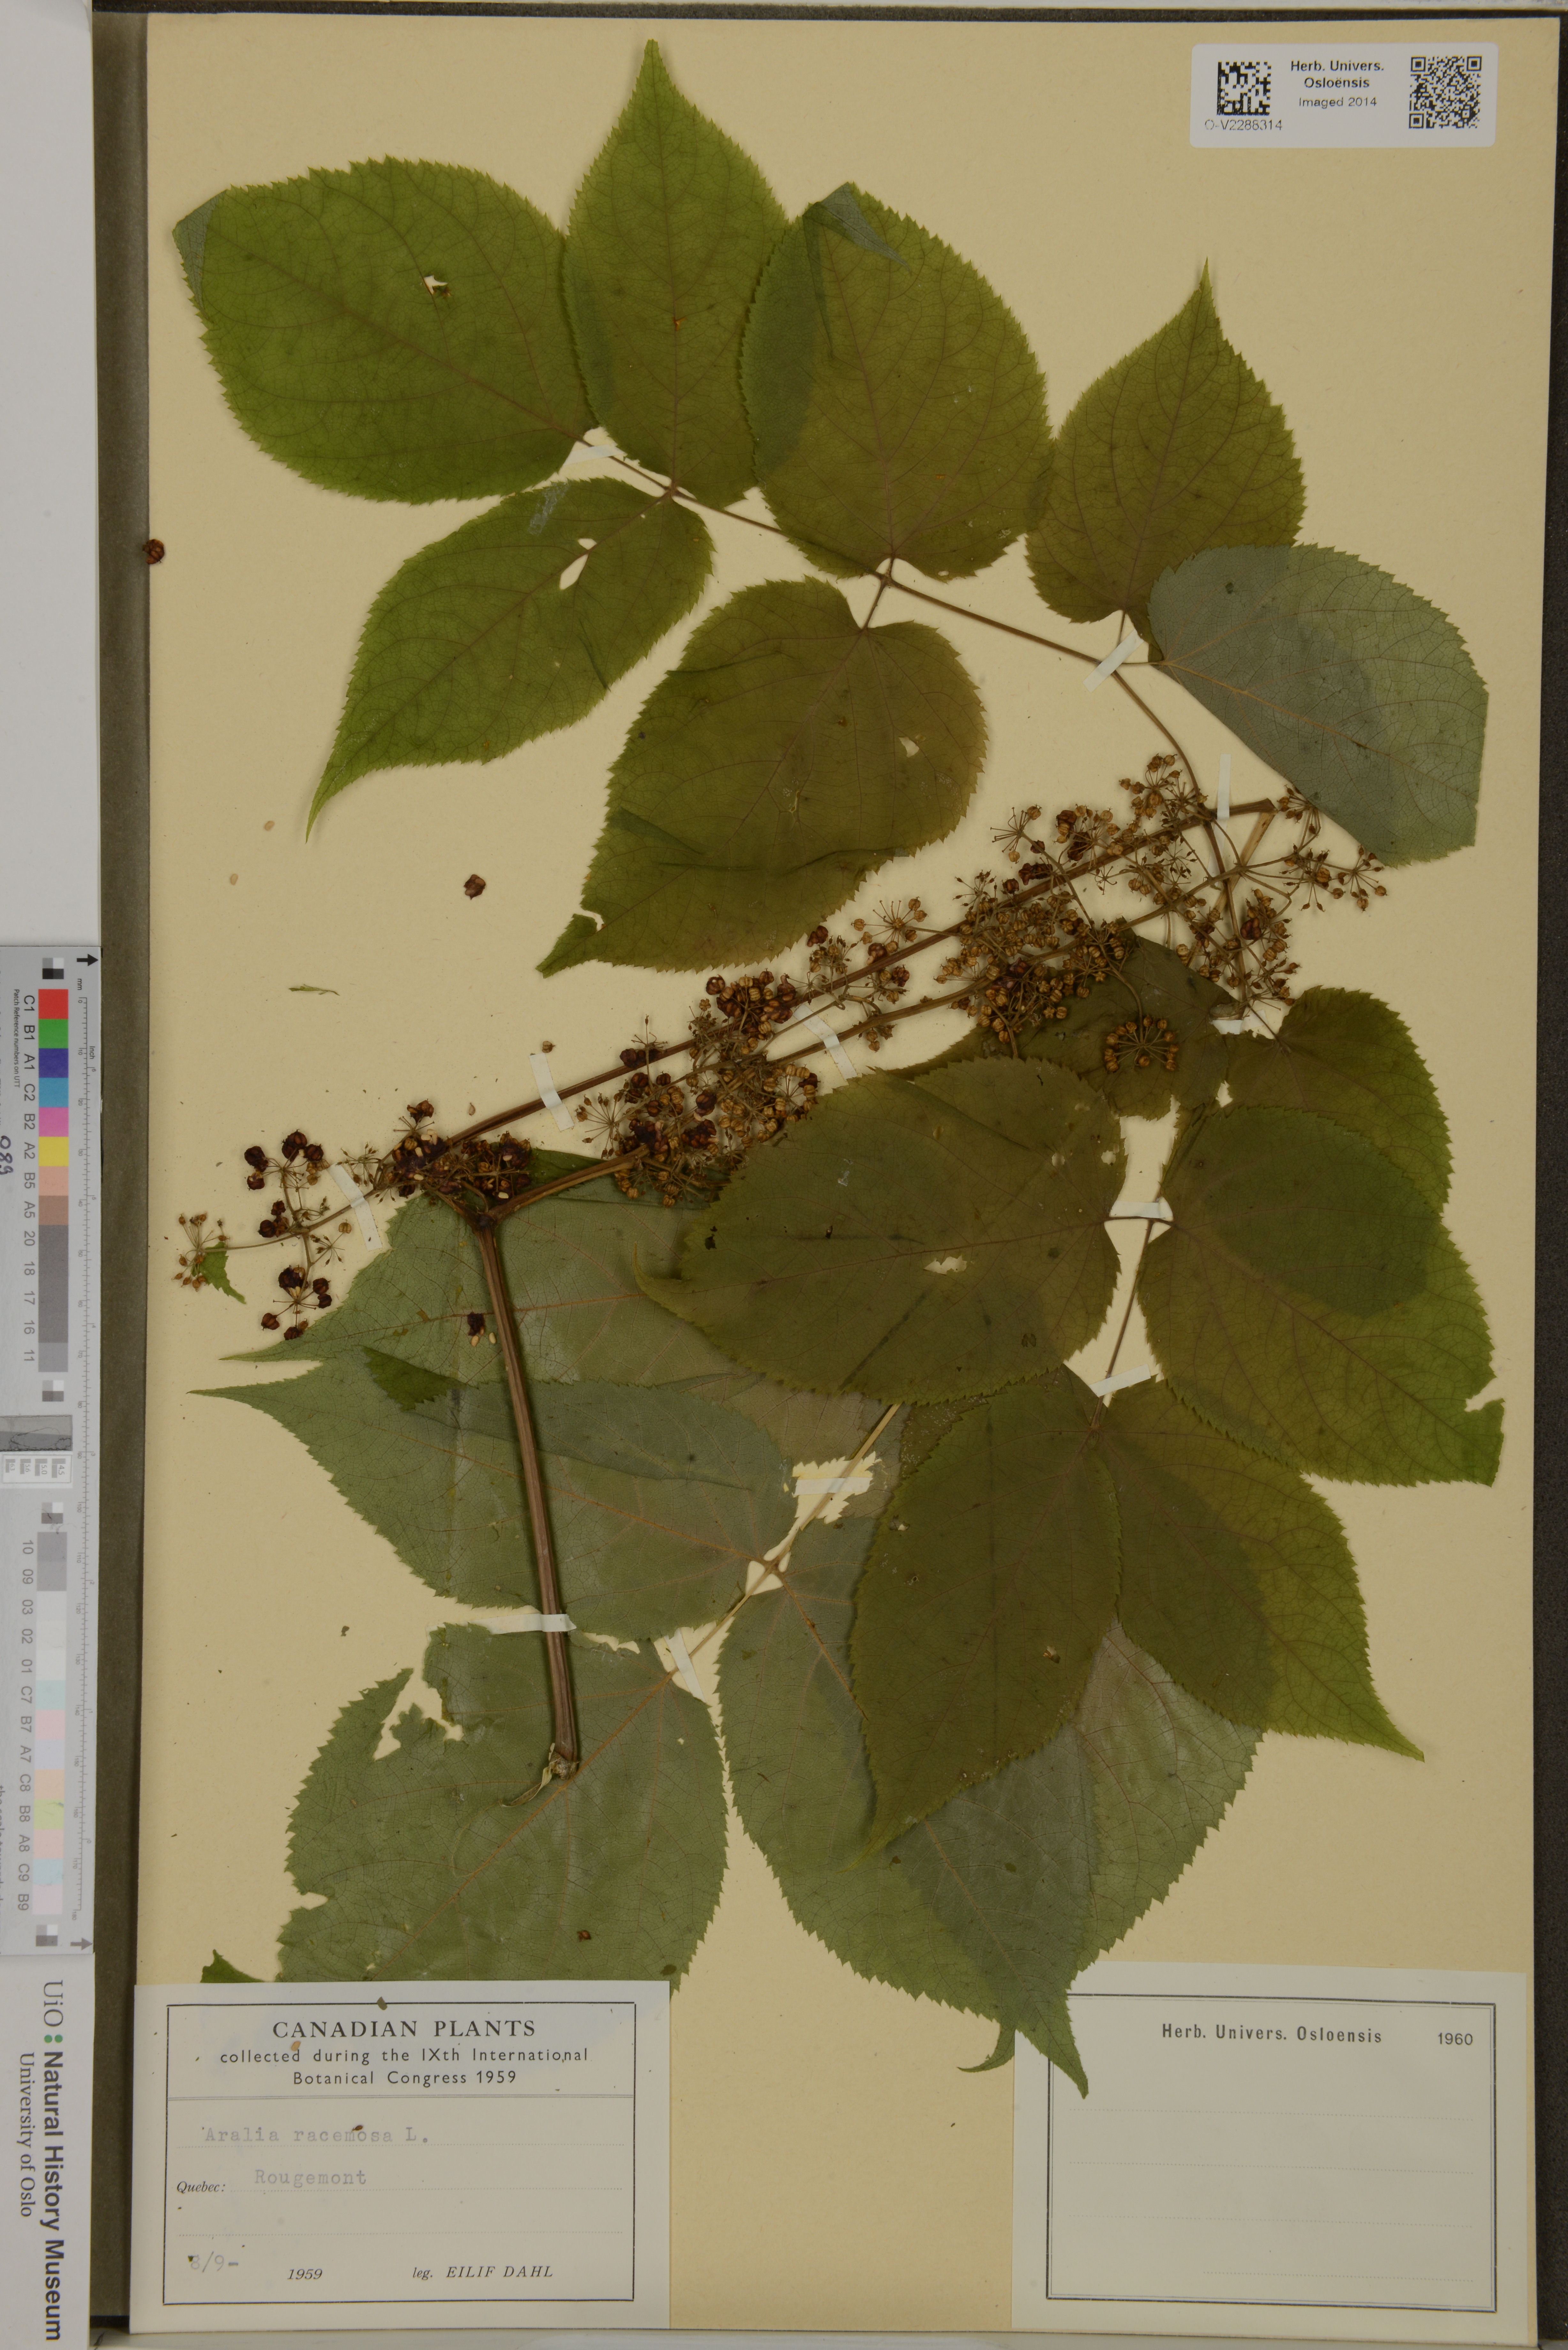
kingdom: Plantae
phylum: Tracheophyta
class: Magnoliopsida
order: Apiales
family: Araliaceae
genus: Aralia
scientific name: Aralia racemosa
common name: American-spikenard
